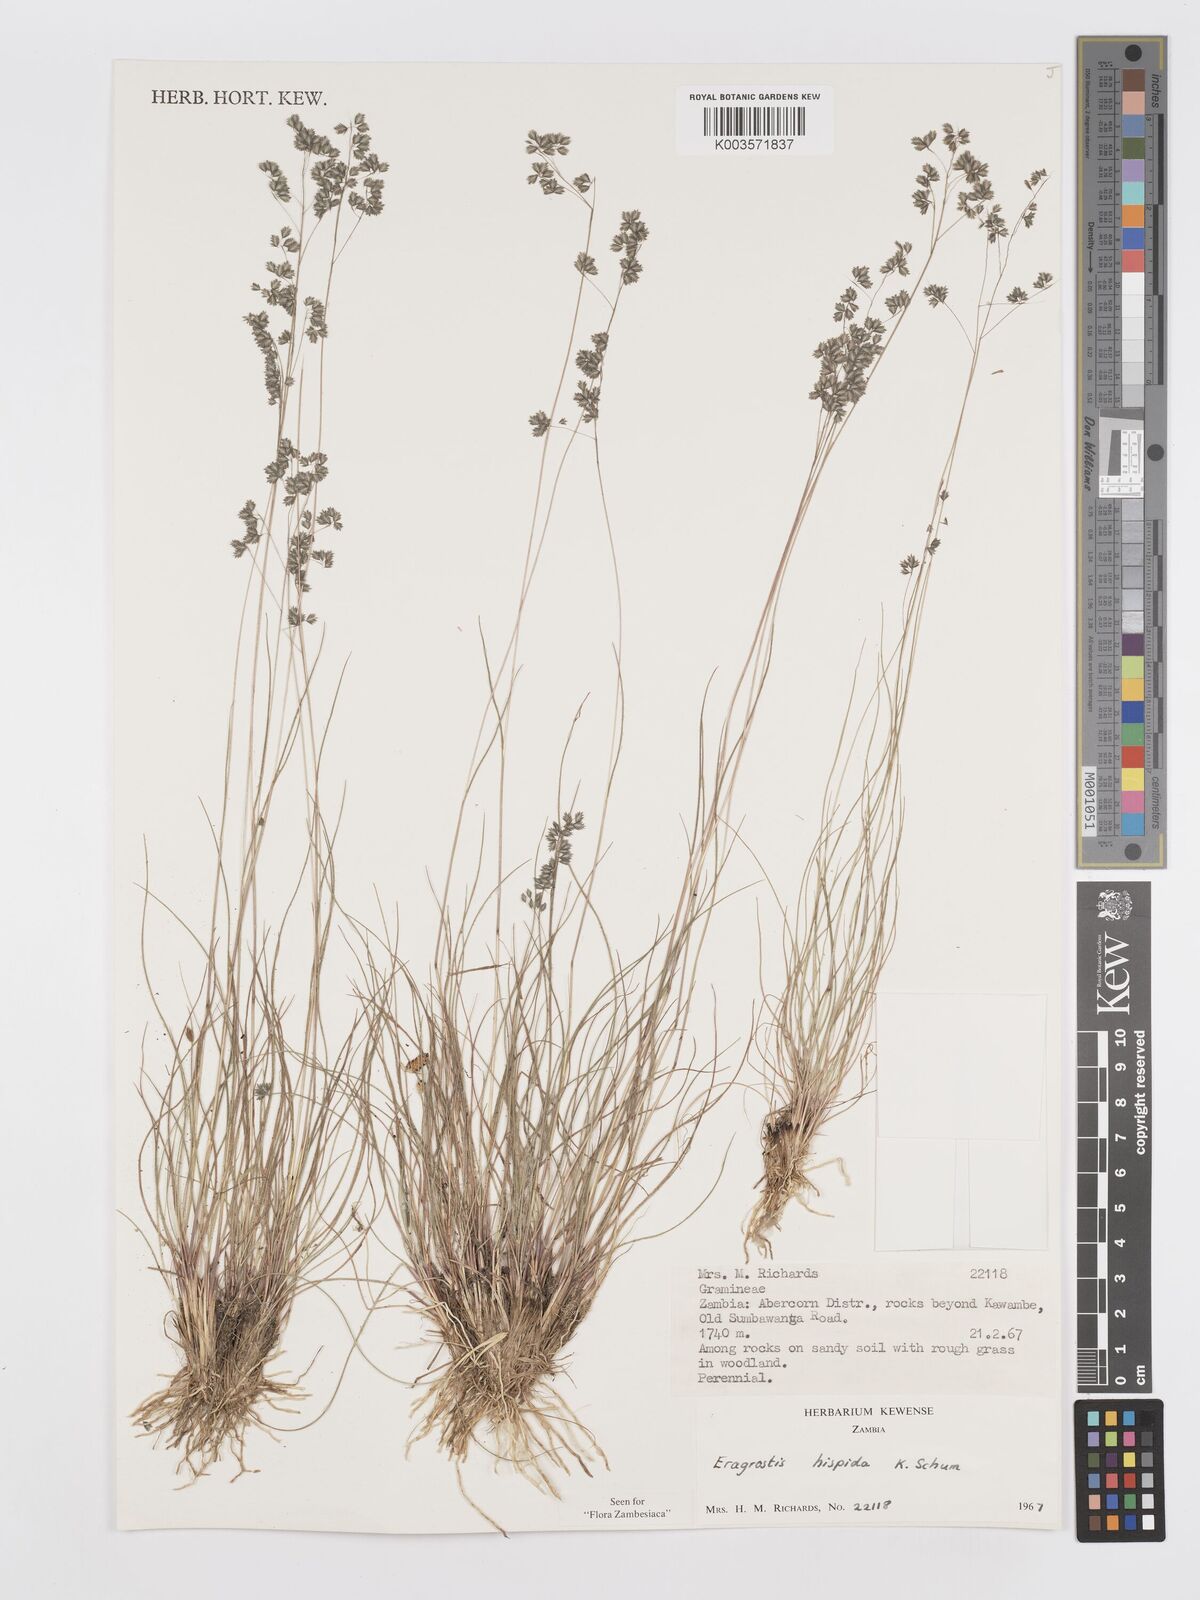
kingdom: Plantae
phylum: Tracheophyta
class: Liliopsida
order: Poales
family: Poaceae
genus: Eragrostis
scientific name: Eragrostis hispida
